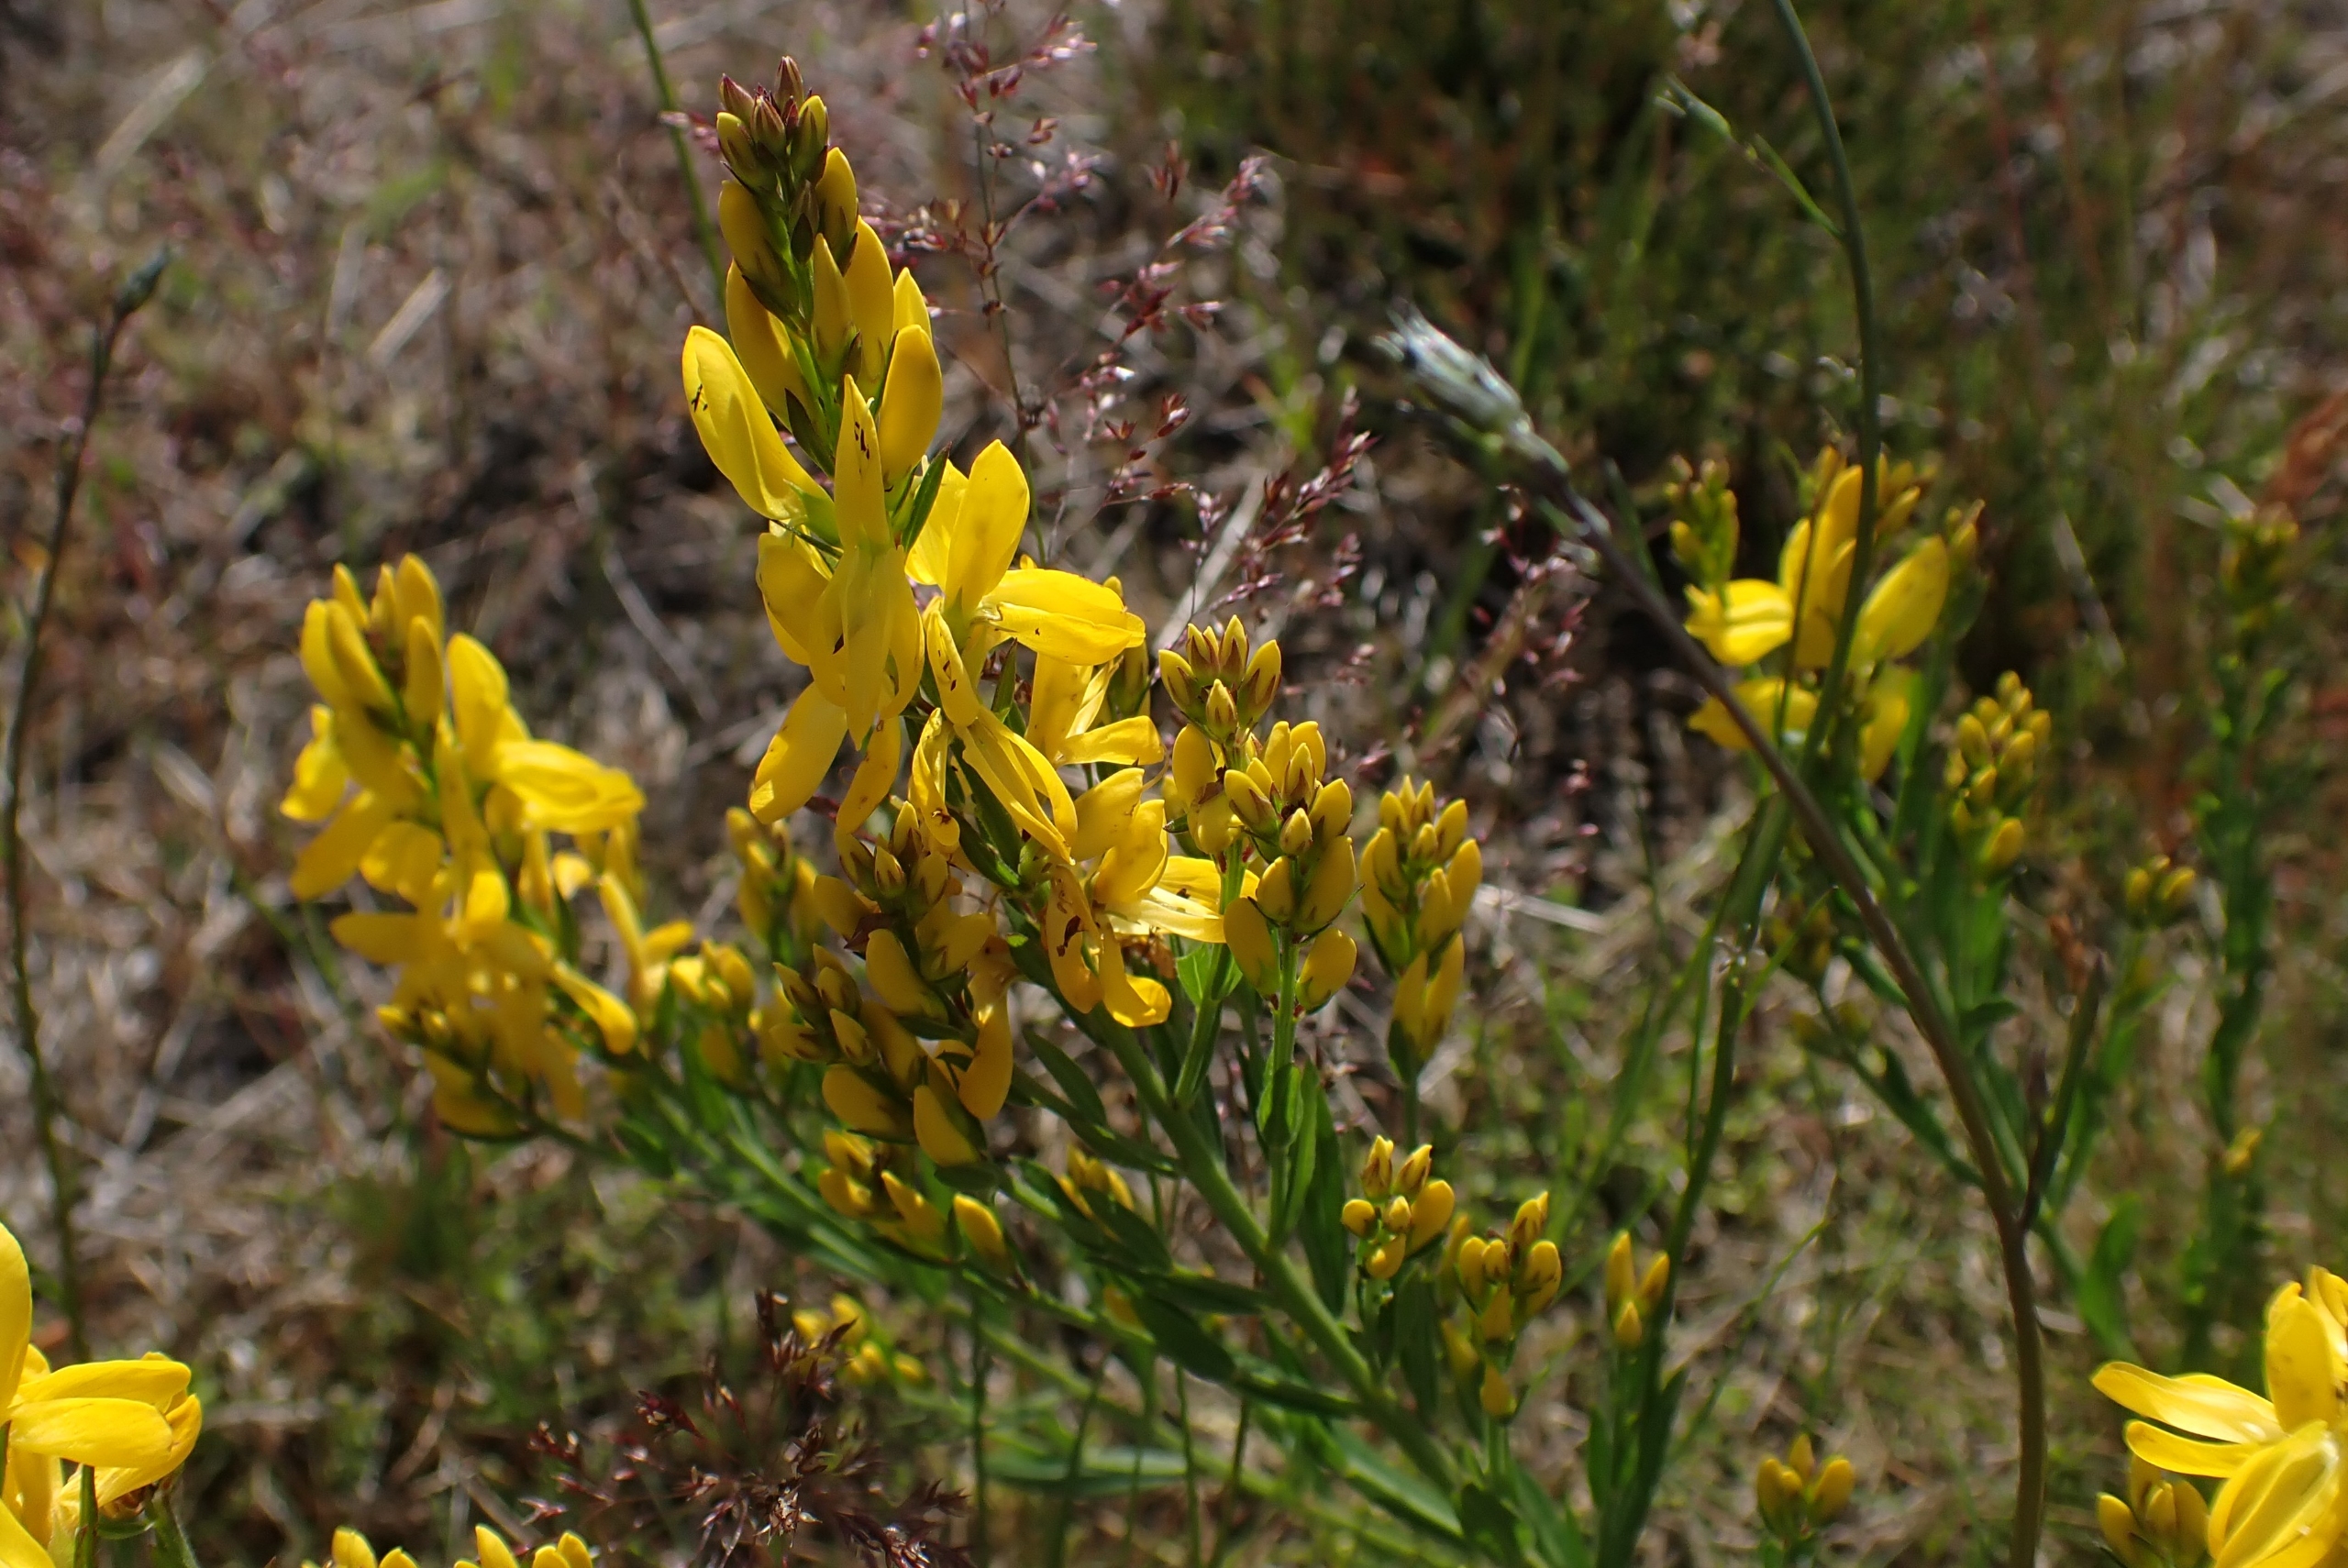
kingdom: Plantae
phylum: Tracheophyta
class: Magnoliopsida
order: Fabales
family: Fabaceae
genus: Genista
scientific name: Genista tinctoria
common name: Farve-visse
